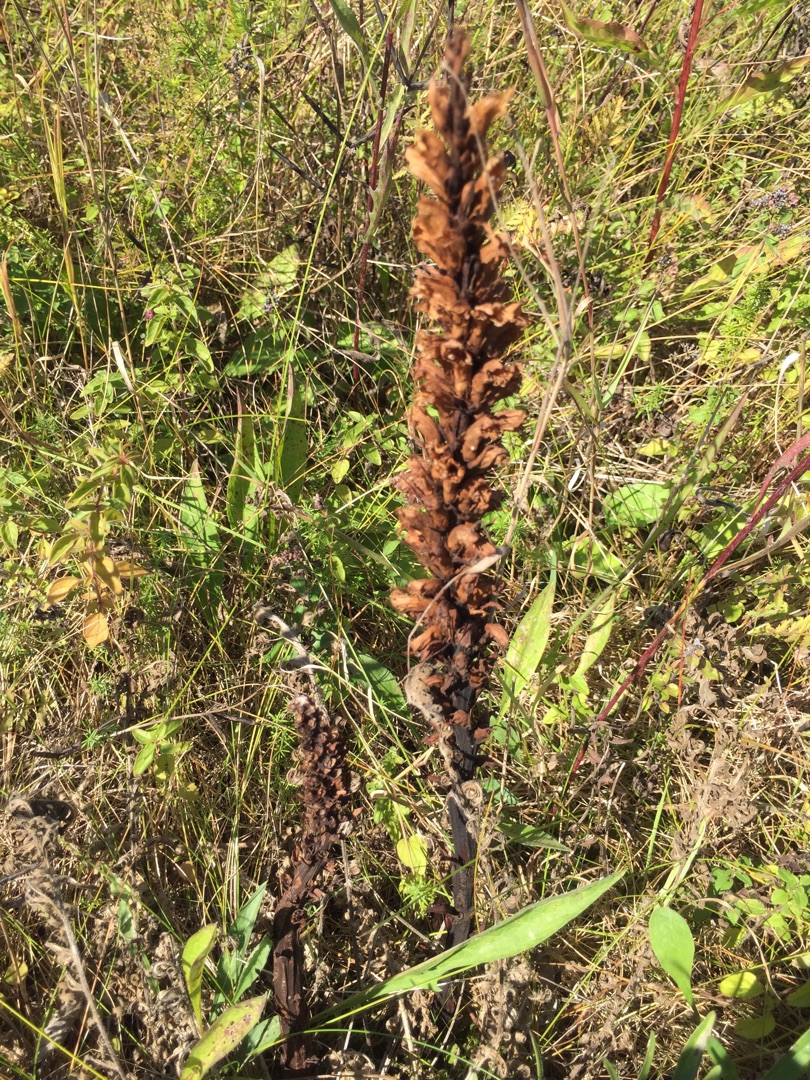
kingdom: Plantae
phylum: Tracheophyta
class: Magnoliopsida
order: Lamiales
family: Orobanchaceae
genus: Orobanche
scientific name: Orobanche elatior
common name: Stor gyvelkvæler
